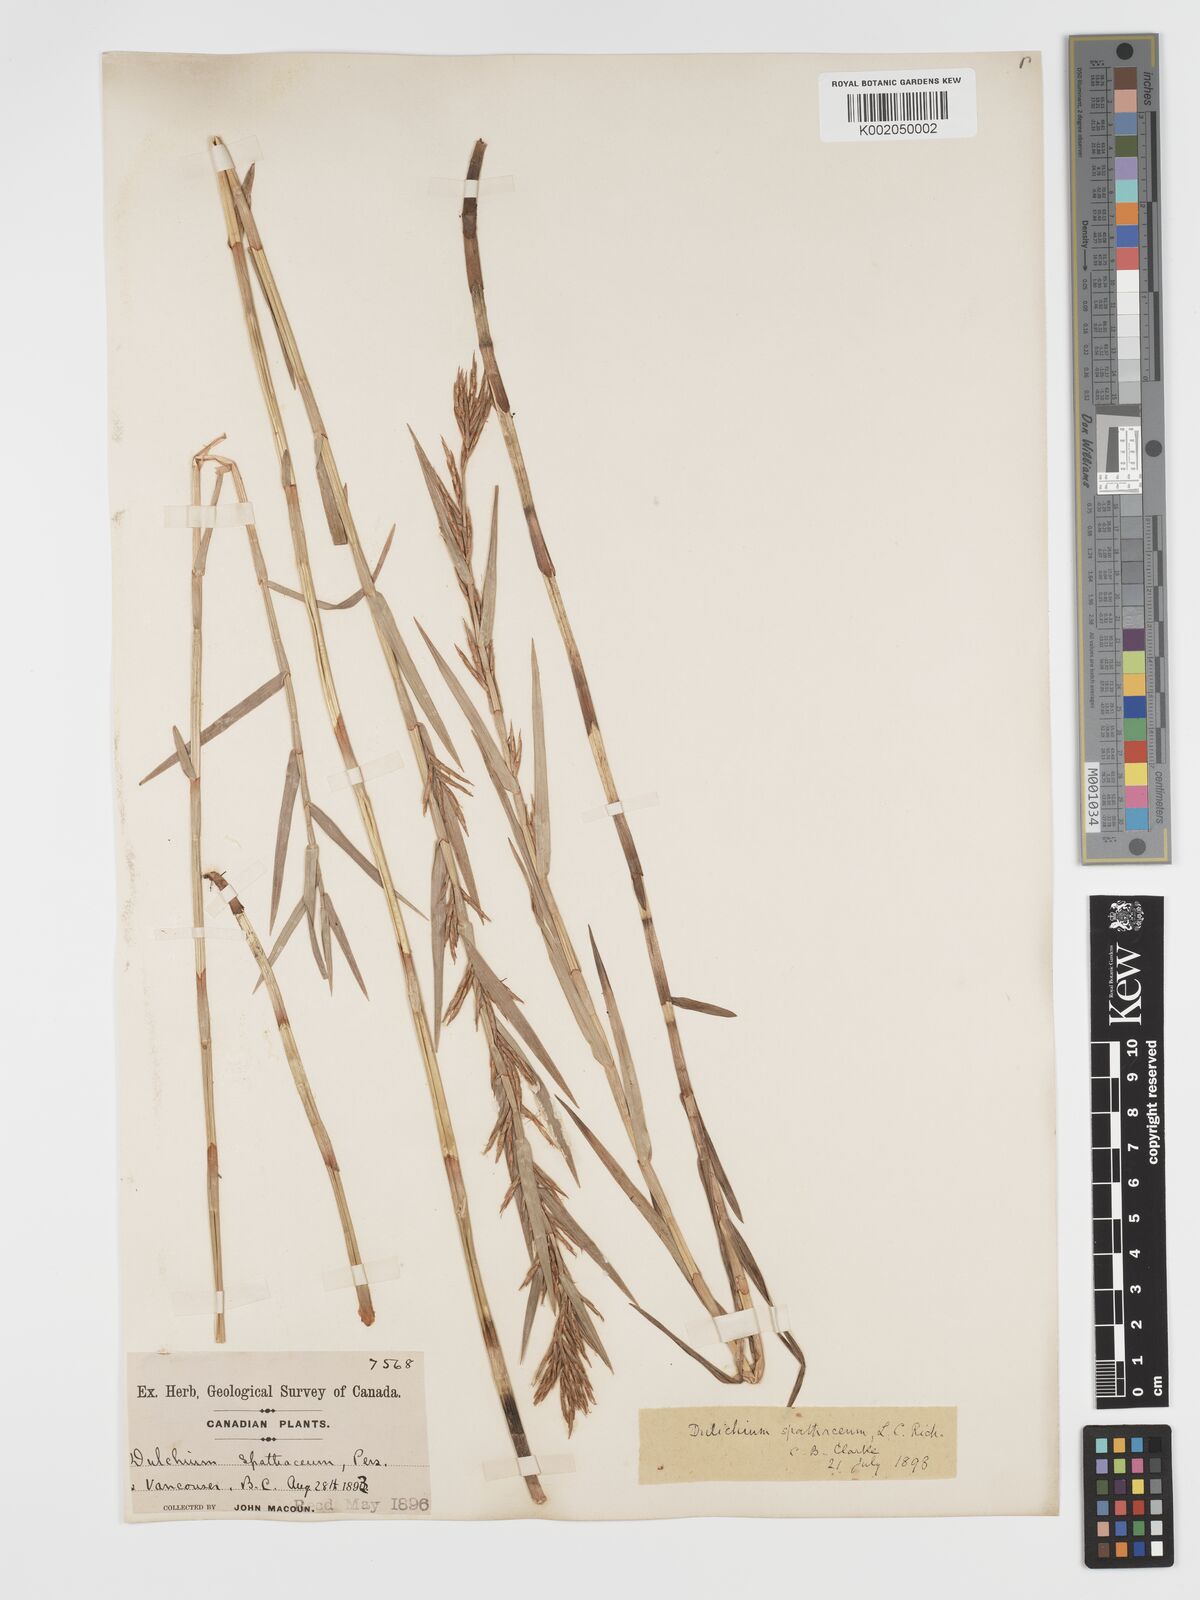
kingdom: Plantae
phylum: Tracheophyta
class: Liliopsida
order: Poales
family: Cyperaceae
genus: Dulichium
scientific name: Dulichium arundinaceum
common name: Three-way sedge
